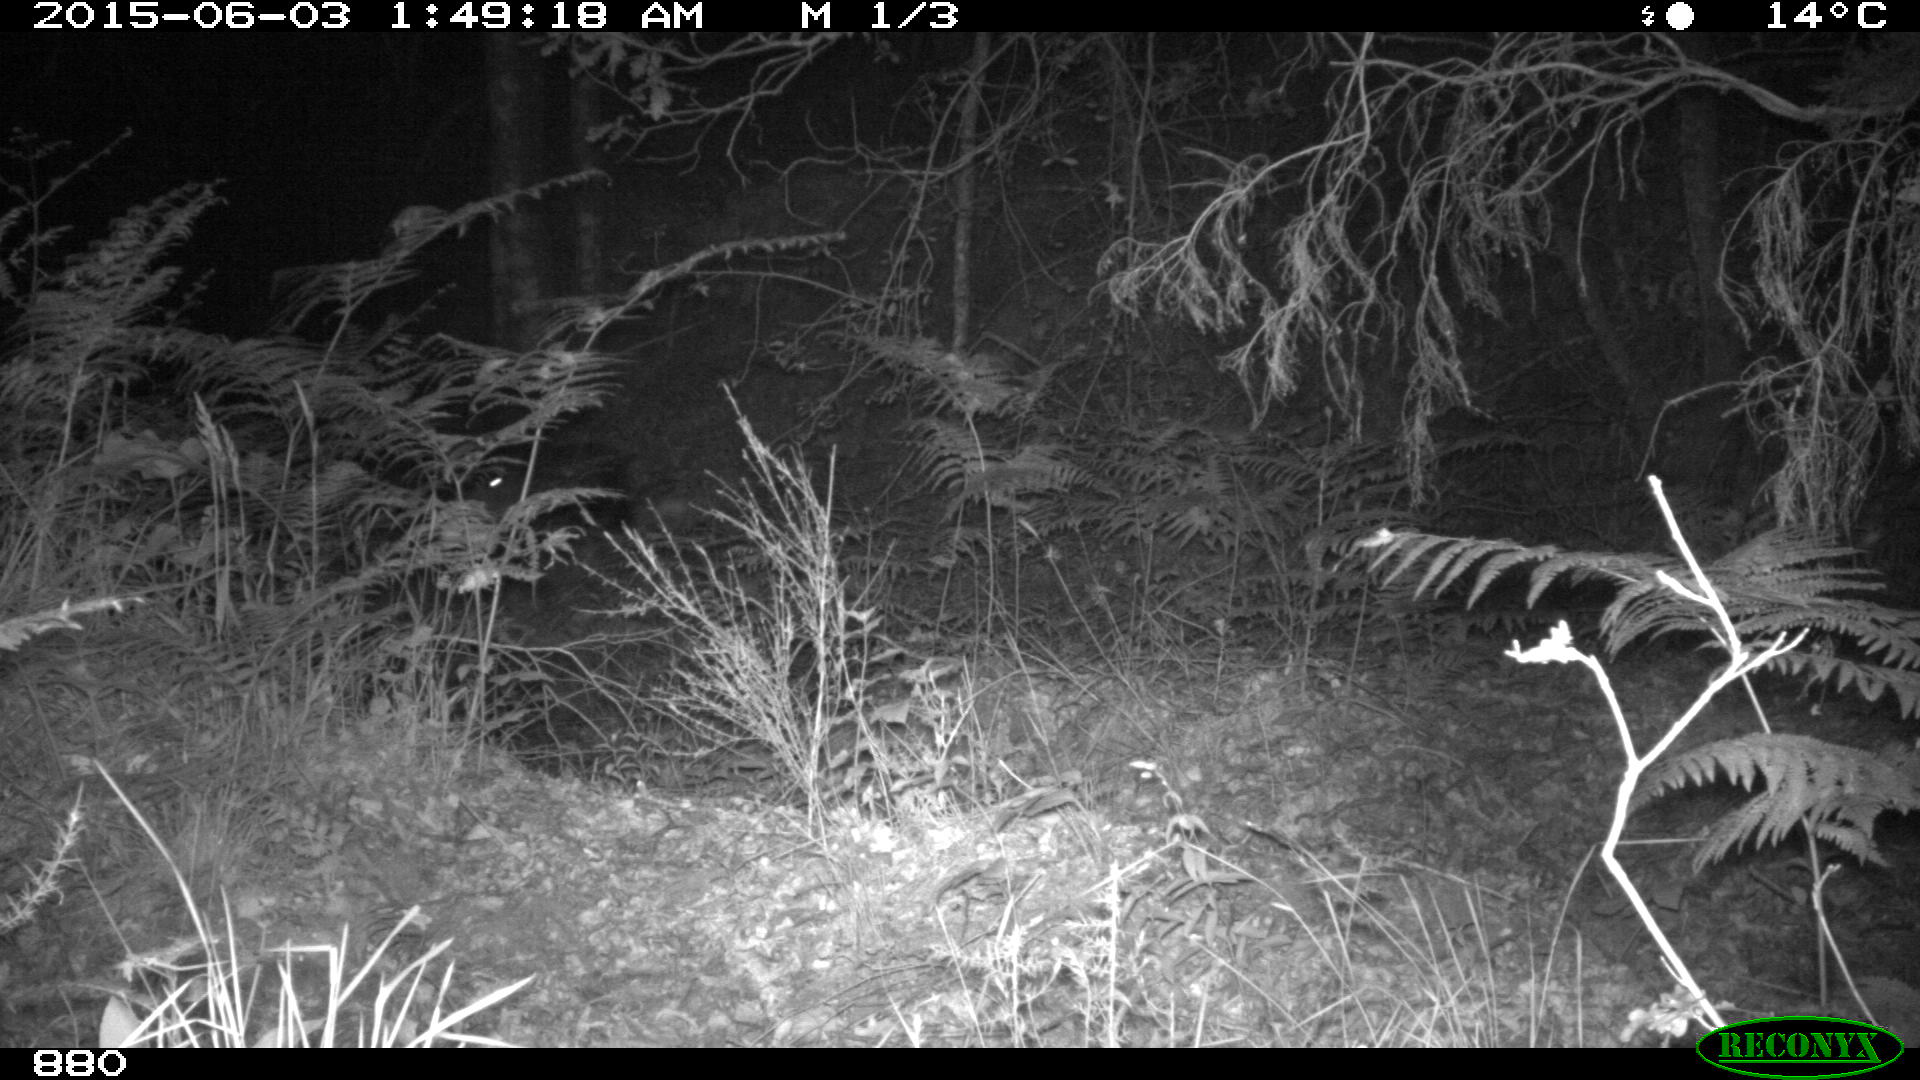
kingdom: Animalia
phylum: Chordata
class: Mammalia
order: Artiodactyla
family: Suidae
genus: Sus
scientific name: Sus scrofa
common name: Wild boar
